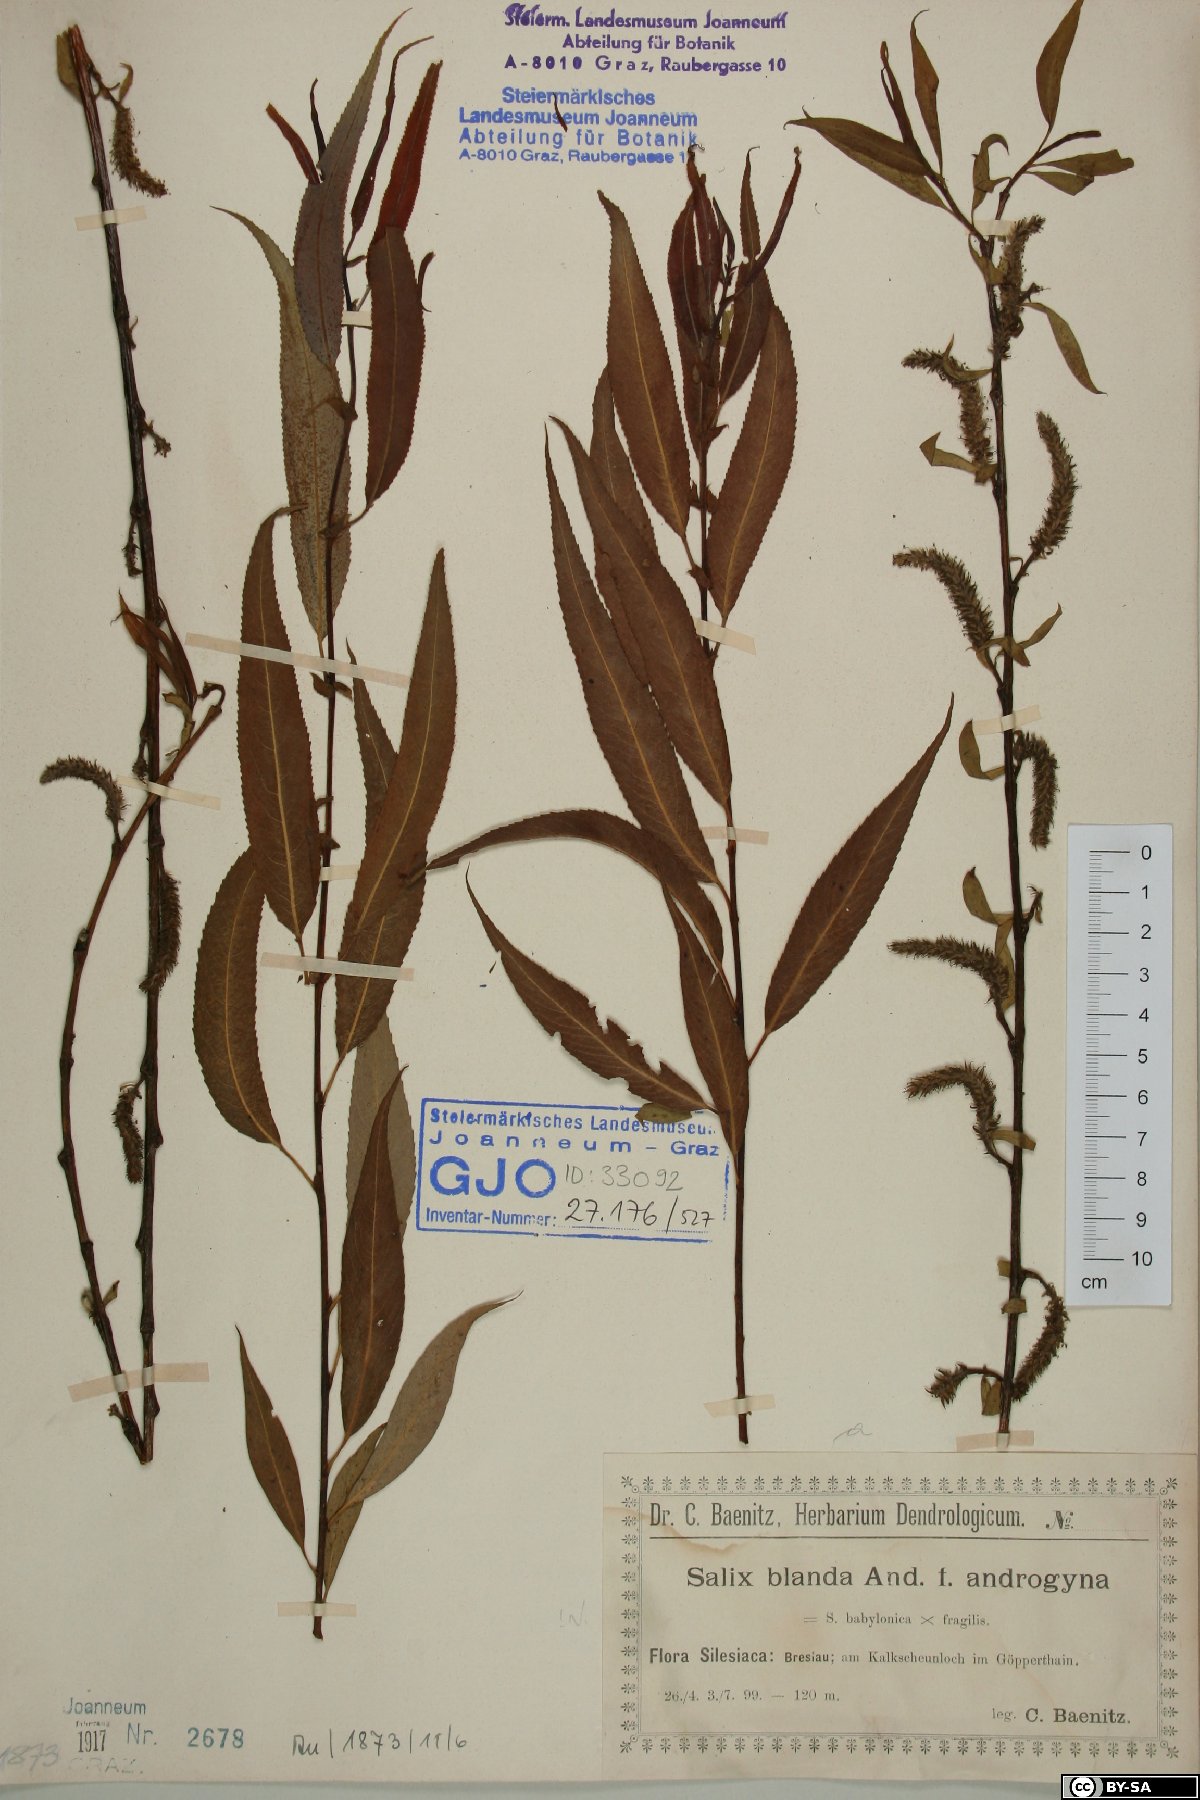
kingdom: Plantae
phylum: Tracheophyta
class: Magnoliopsida
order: Malpighiales
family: Salicaceae
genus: Salix
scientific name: Salix pendulina
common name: Wisconsin weeping willow
